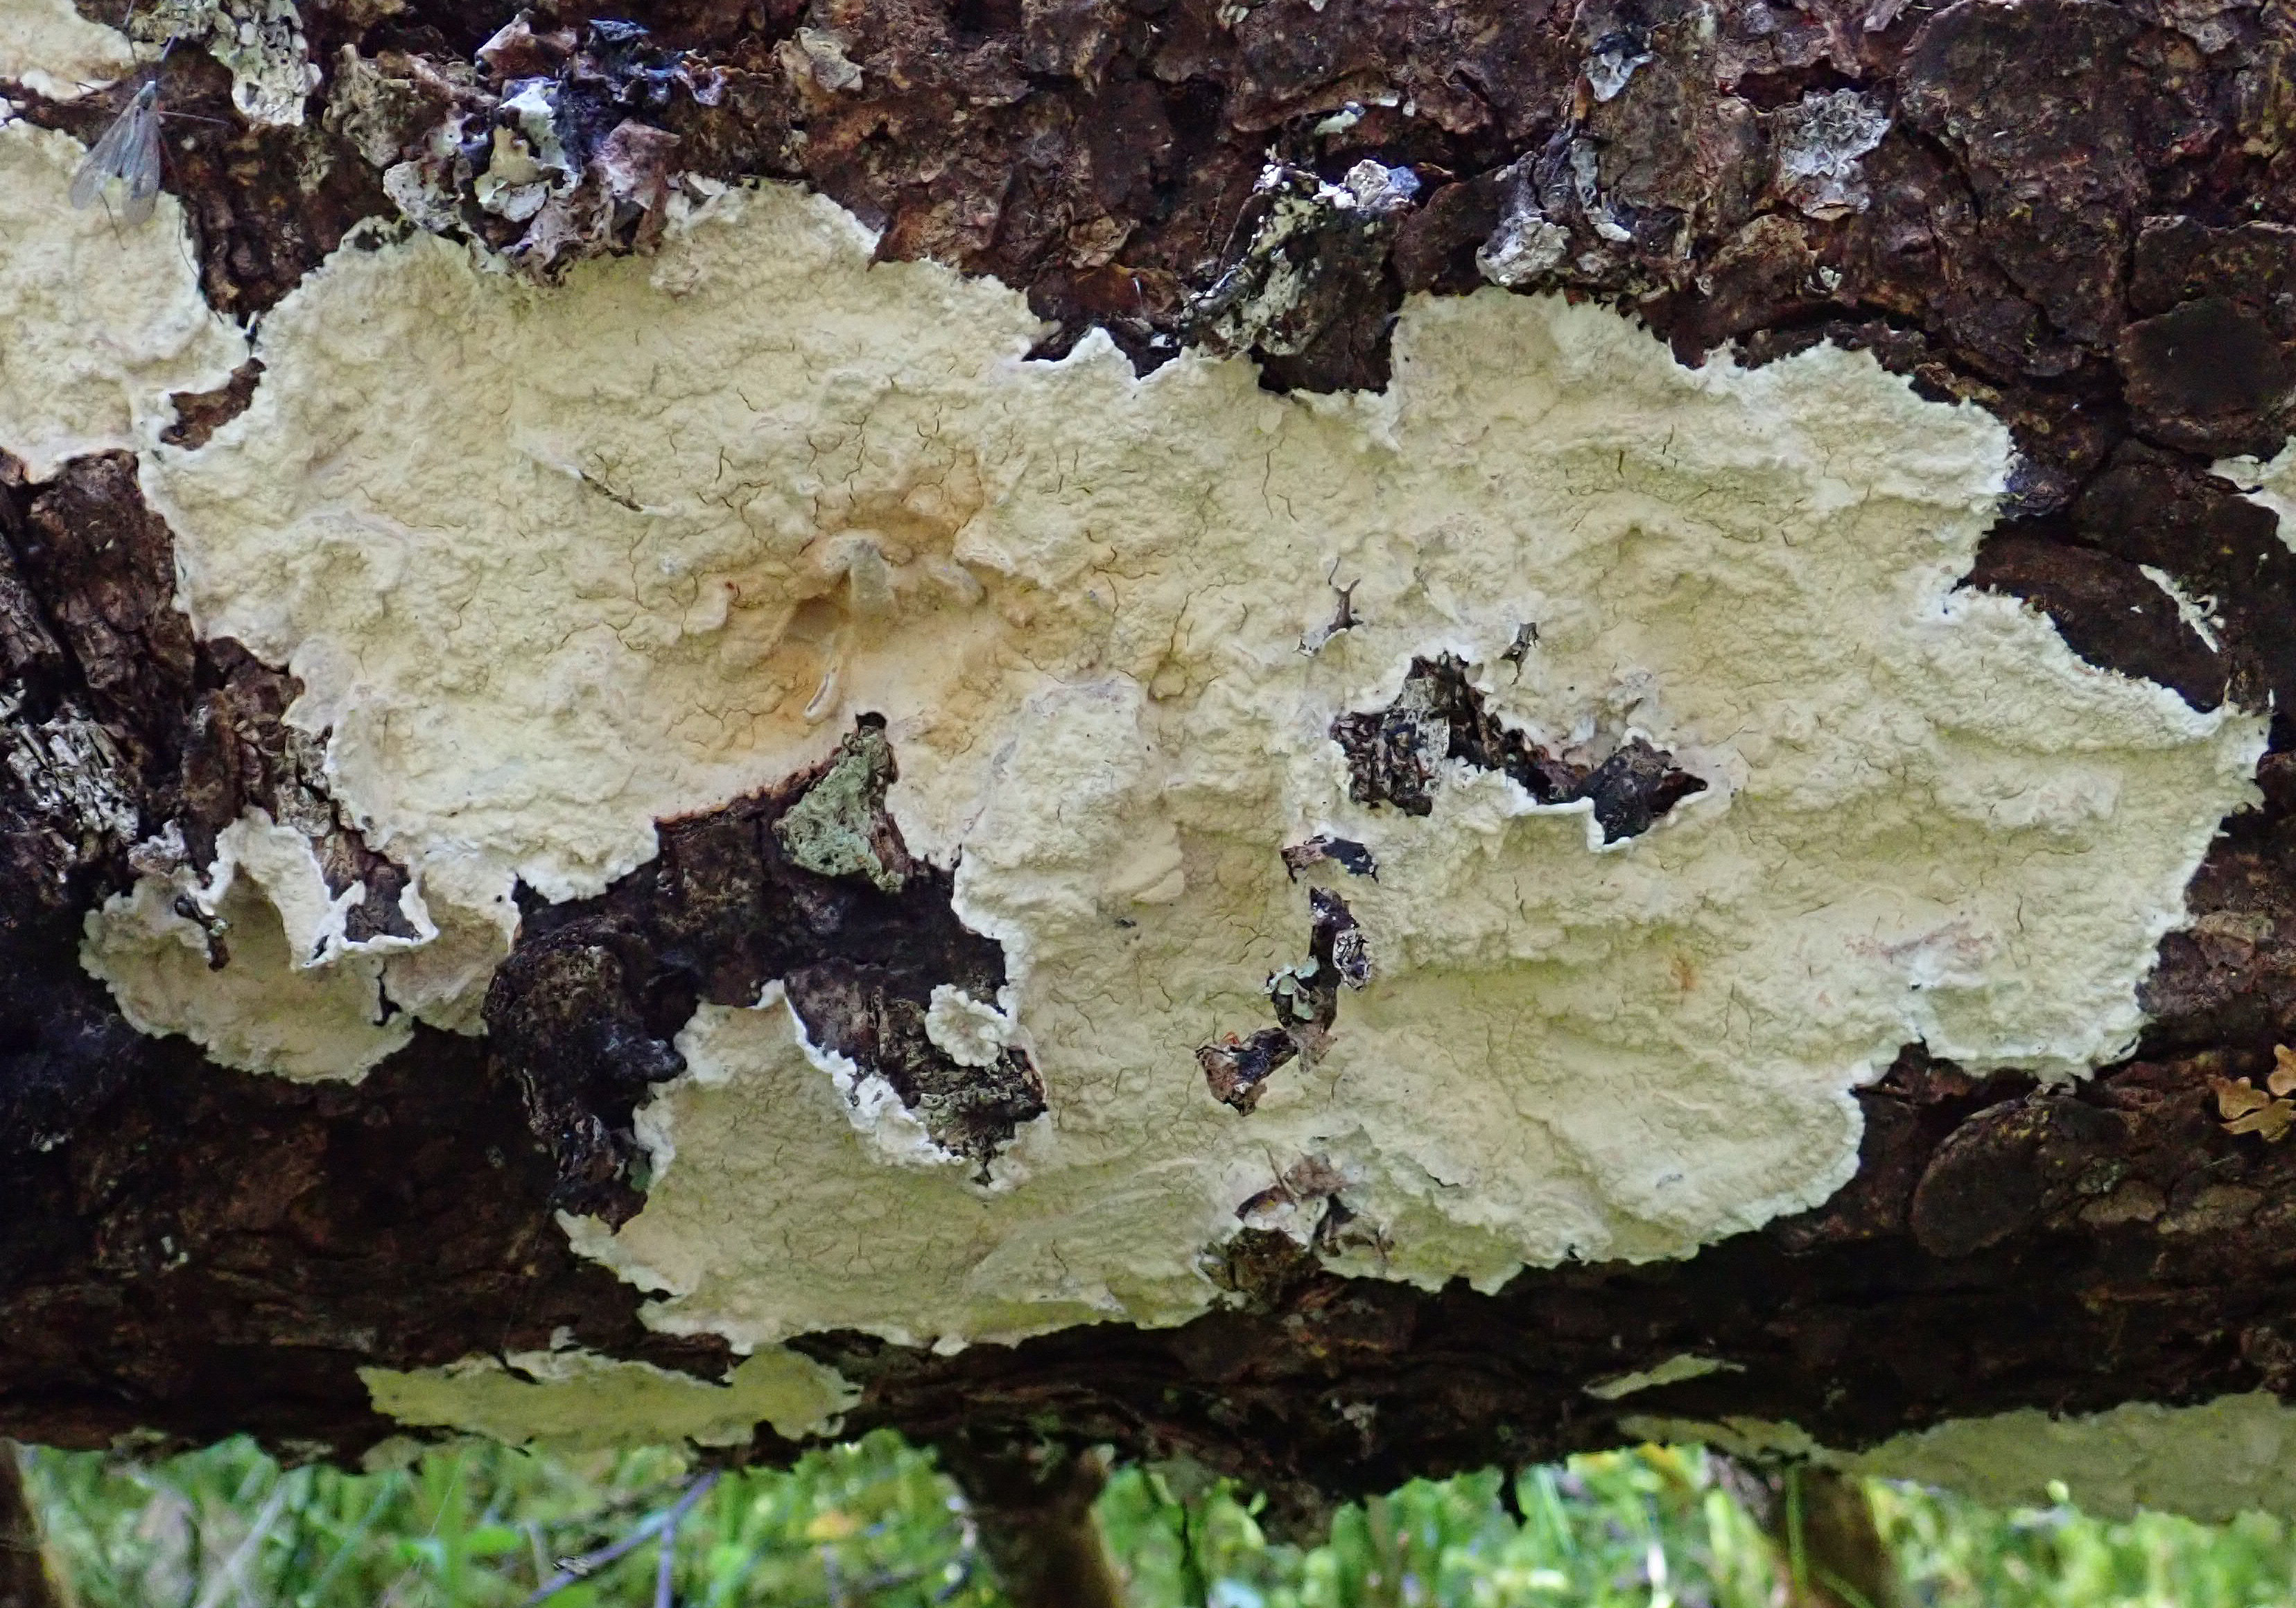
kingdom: Fungi
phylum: Basidiomycota
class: Agaricomycetes
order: Agaricales
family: Cystostereaceae
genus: Cystostereum
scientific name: Cystostereum murrayi
